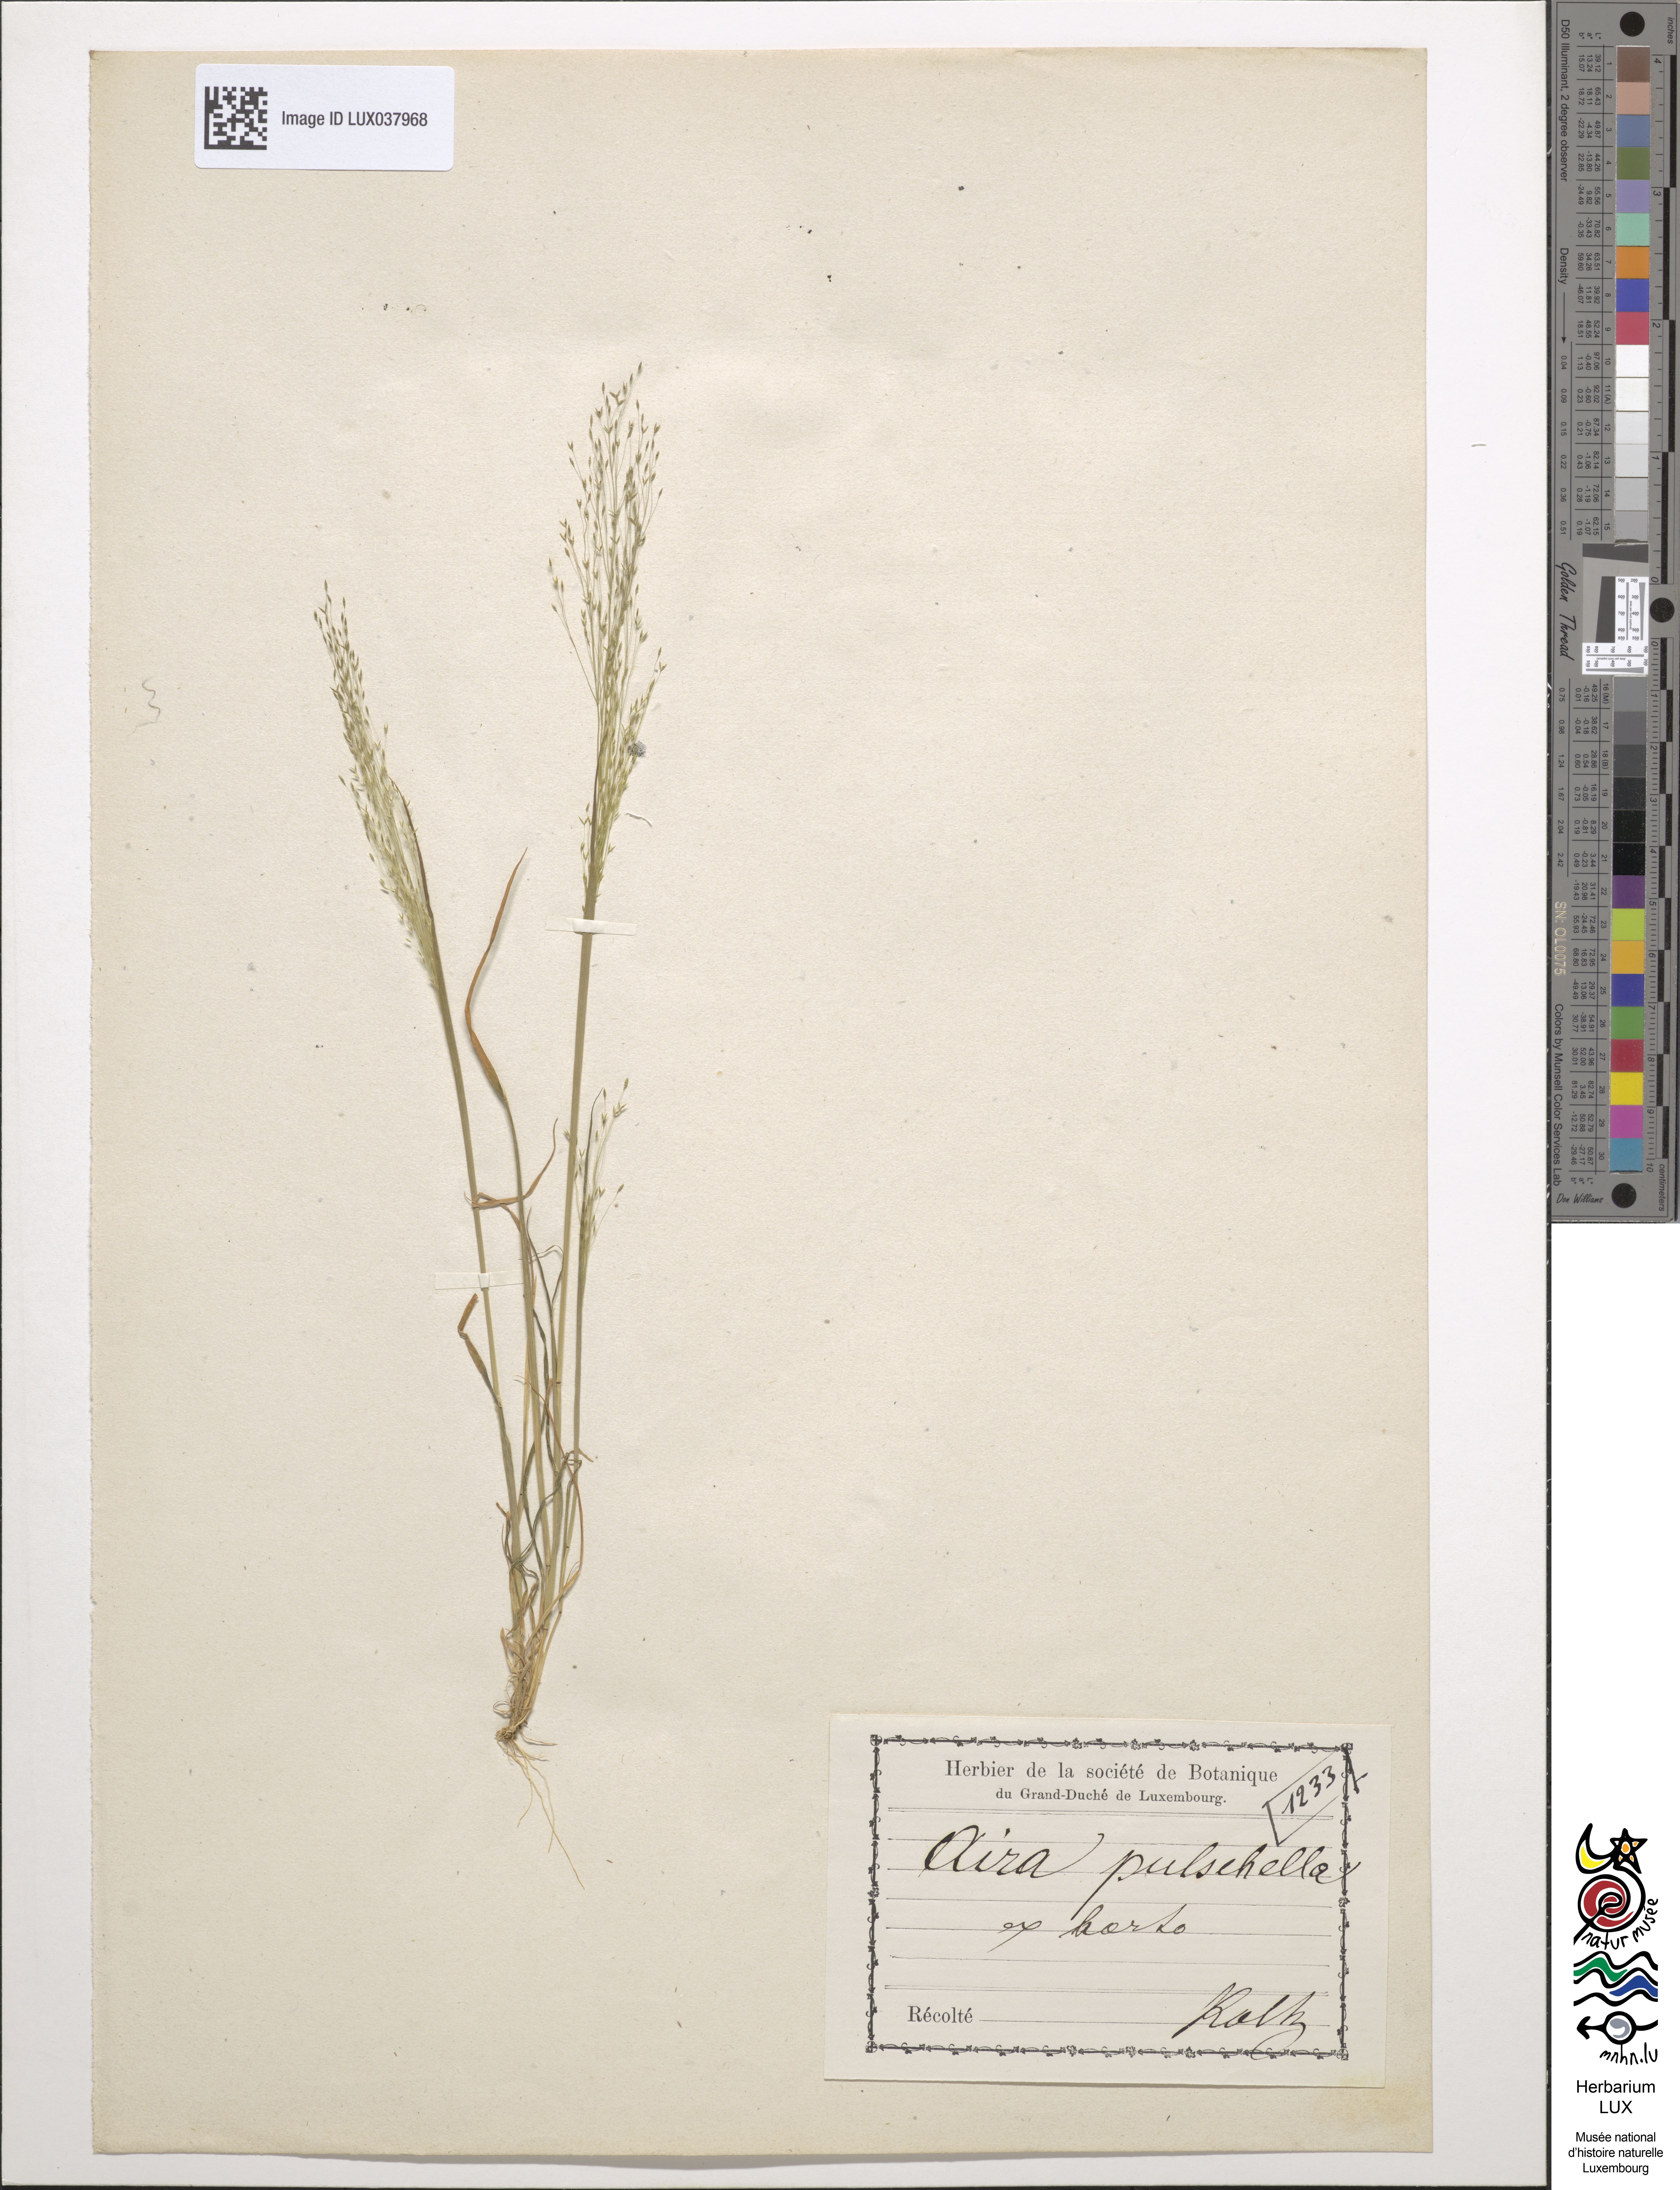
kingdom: Plantae
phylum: Tracheophyta
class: Liliopsida
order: Poales
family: Poaceae
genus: Aira
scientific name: Aira tenorei
